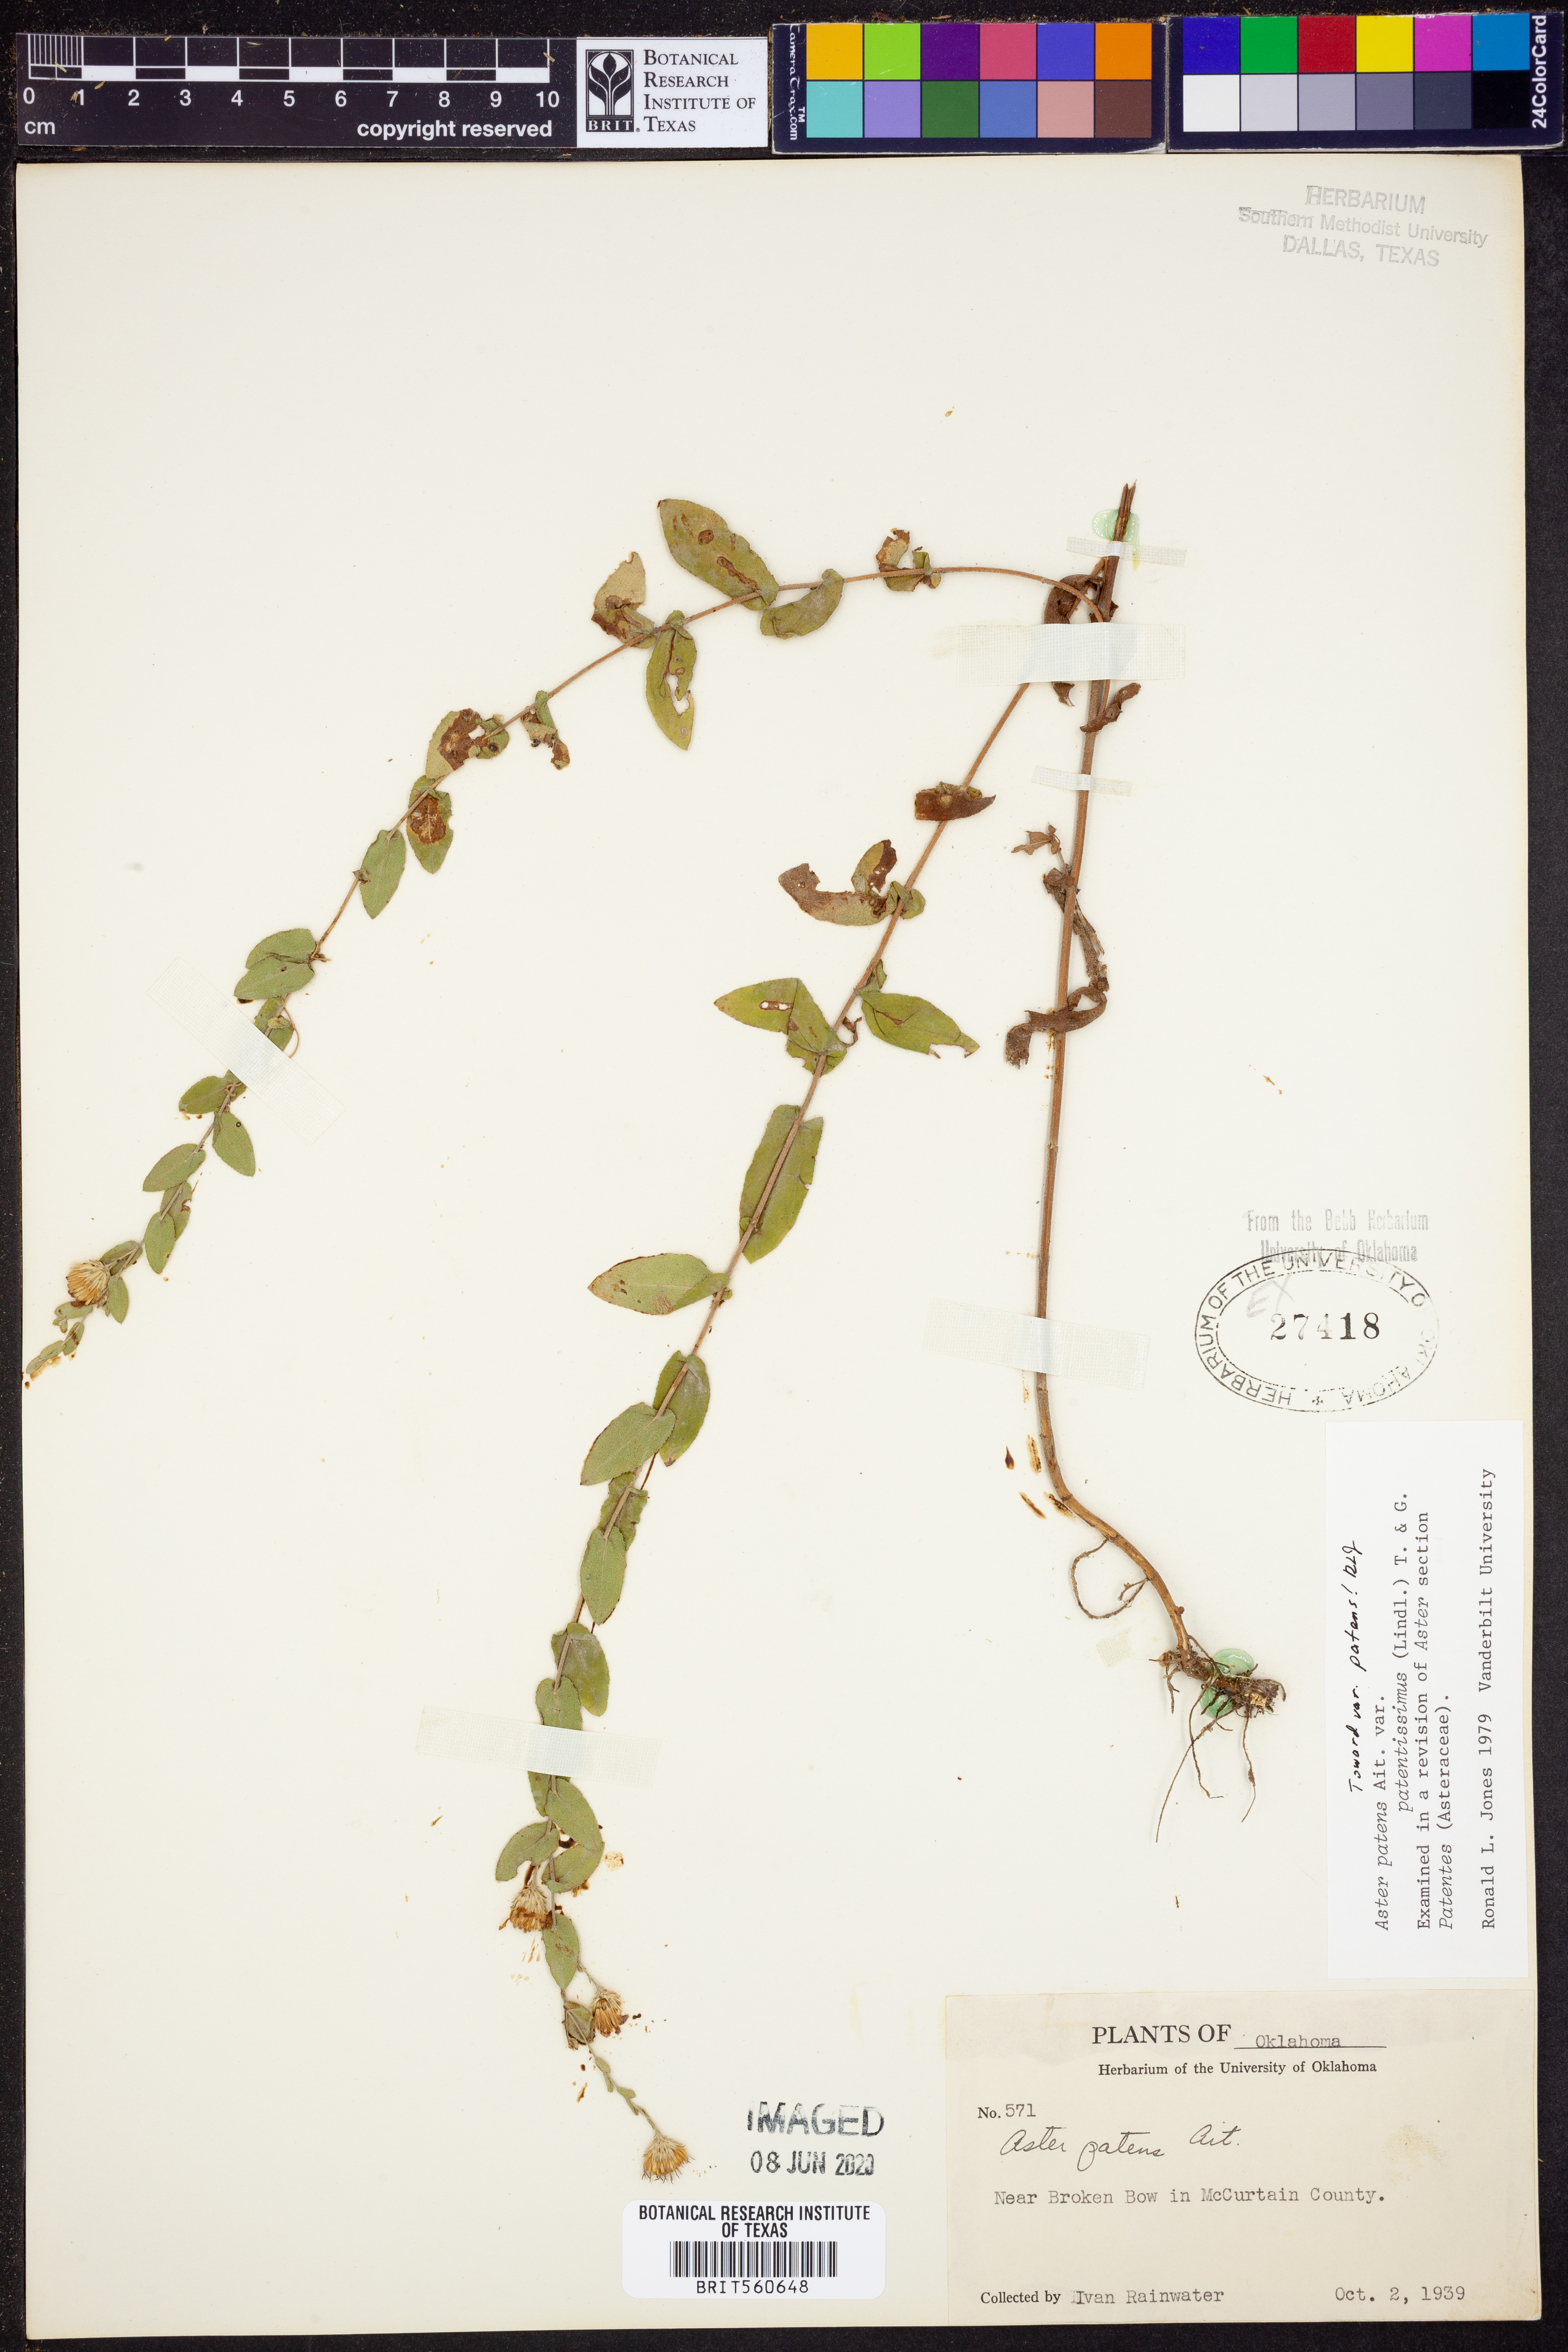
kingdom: Plantae
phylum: Tracheophyta
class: Magnoliopsida
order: Asterales
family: Asteraceae
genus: Symphyotrichum
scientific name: Symphyotrichum patens
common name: Late purple aster
